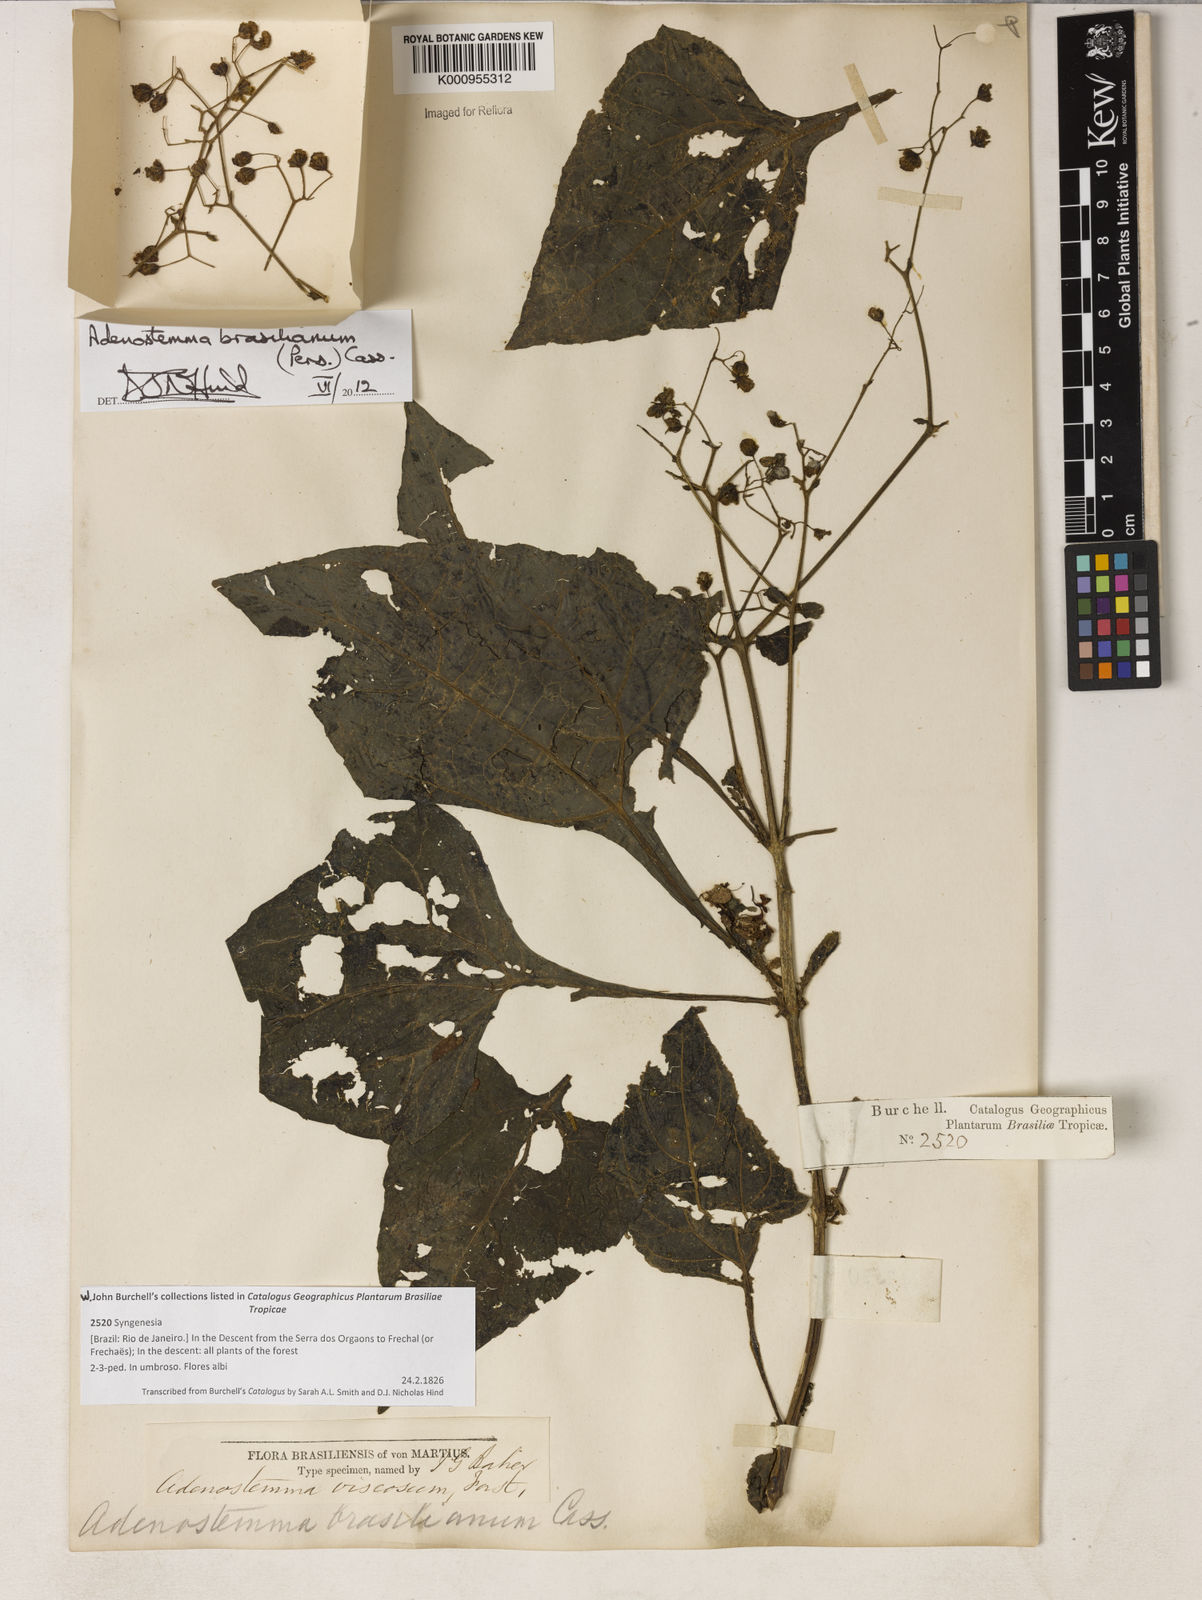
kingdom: Plantae
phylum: Tracheophyta
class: Magnoliopsida
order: Asterales
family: Asteraceae
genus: Adenostemma
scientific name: Adenostemma
